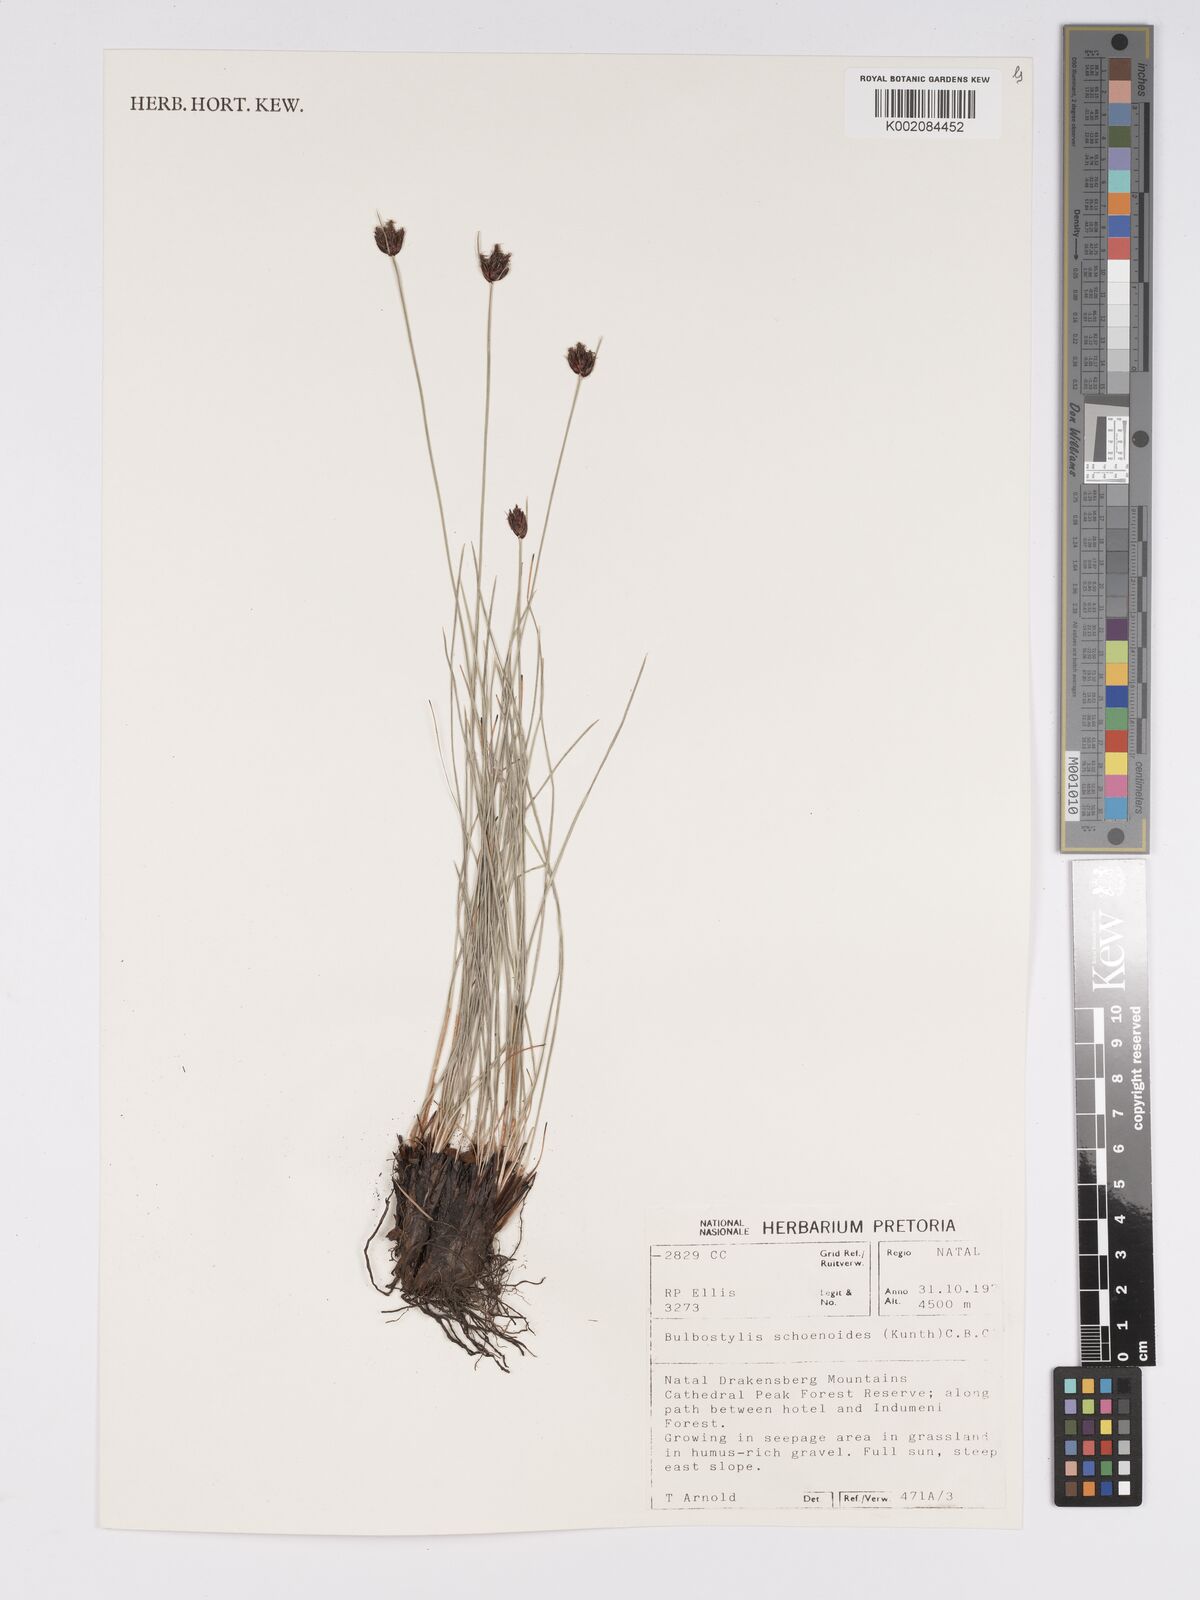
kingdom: Plantae
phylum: Tracheophyta
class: Liliopsida
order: Poales
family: Cyperaceae
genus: Bulbostylis
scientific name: Bulbostylis schoenoides
